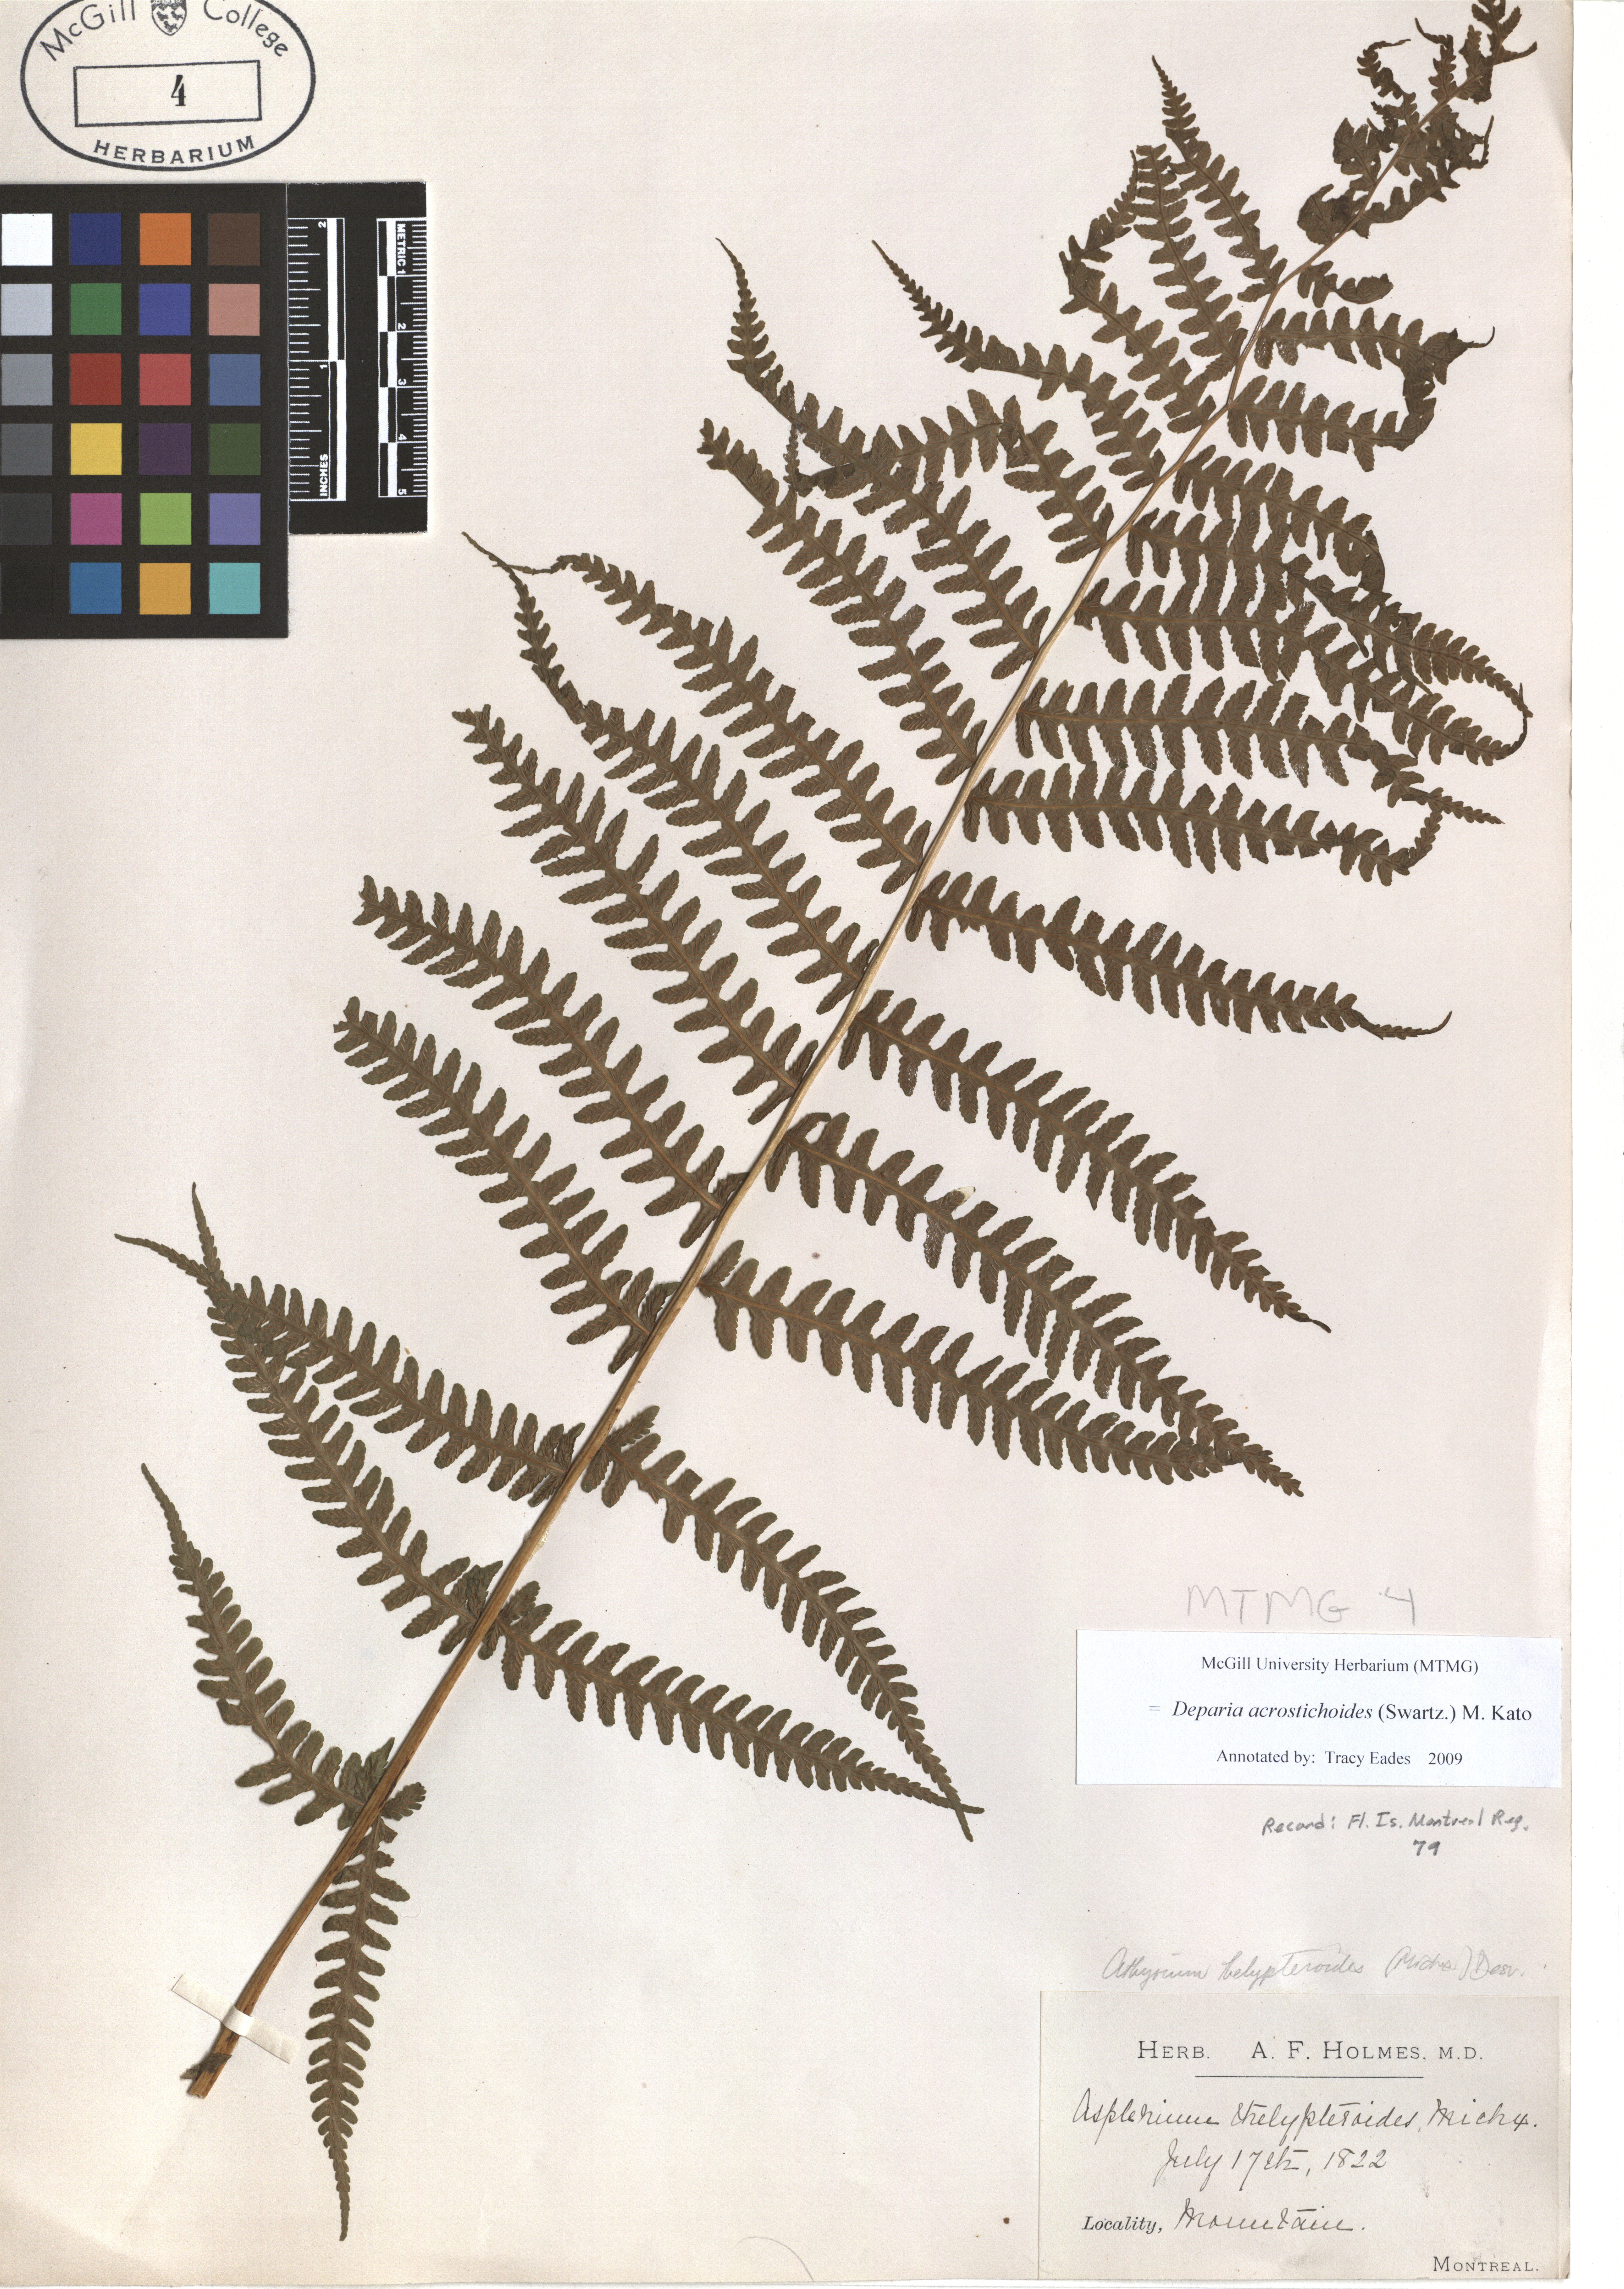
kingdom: Plantae
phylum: Tracheophyta
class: Polypodiopsida
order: Polypodiales
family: Athyriaceae
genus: Deparia
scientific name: Deparia acrostichoides
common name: Silver false spleenwort
